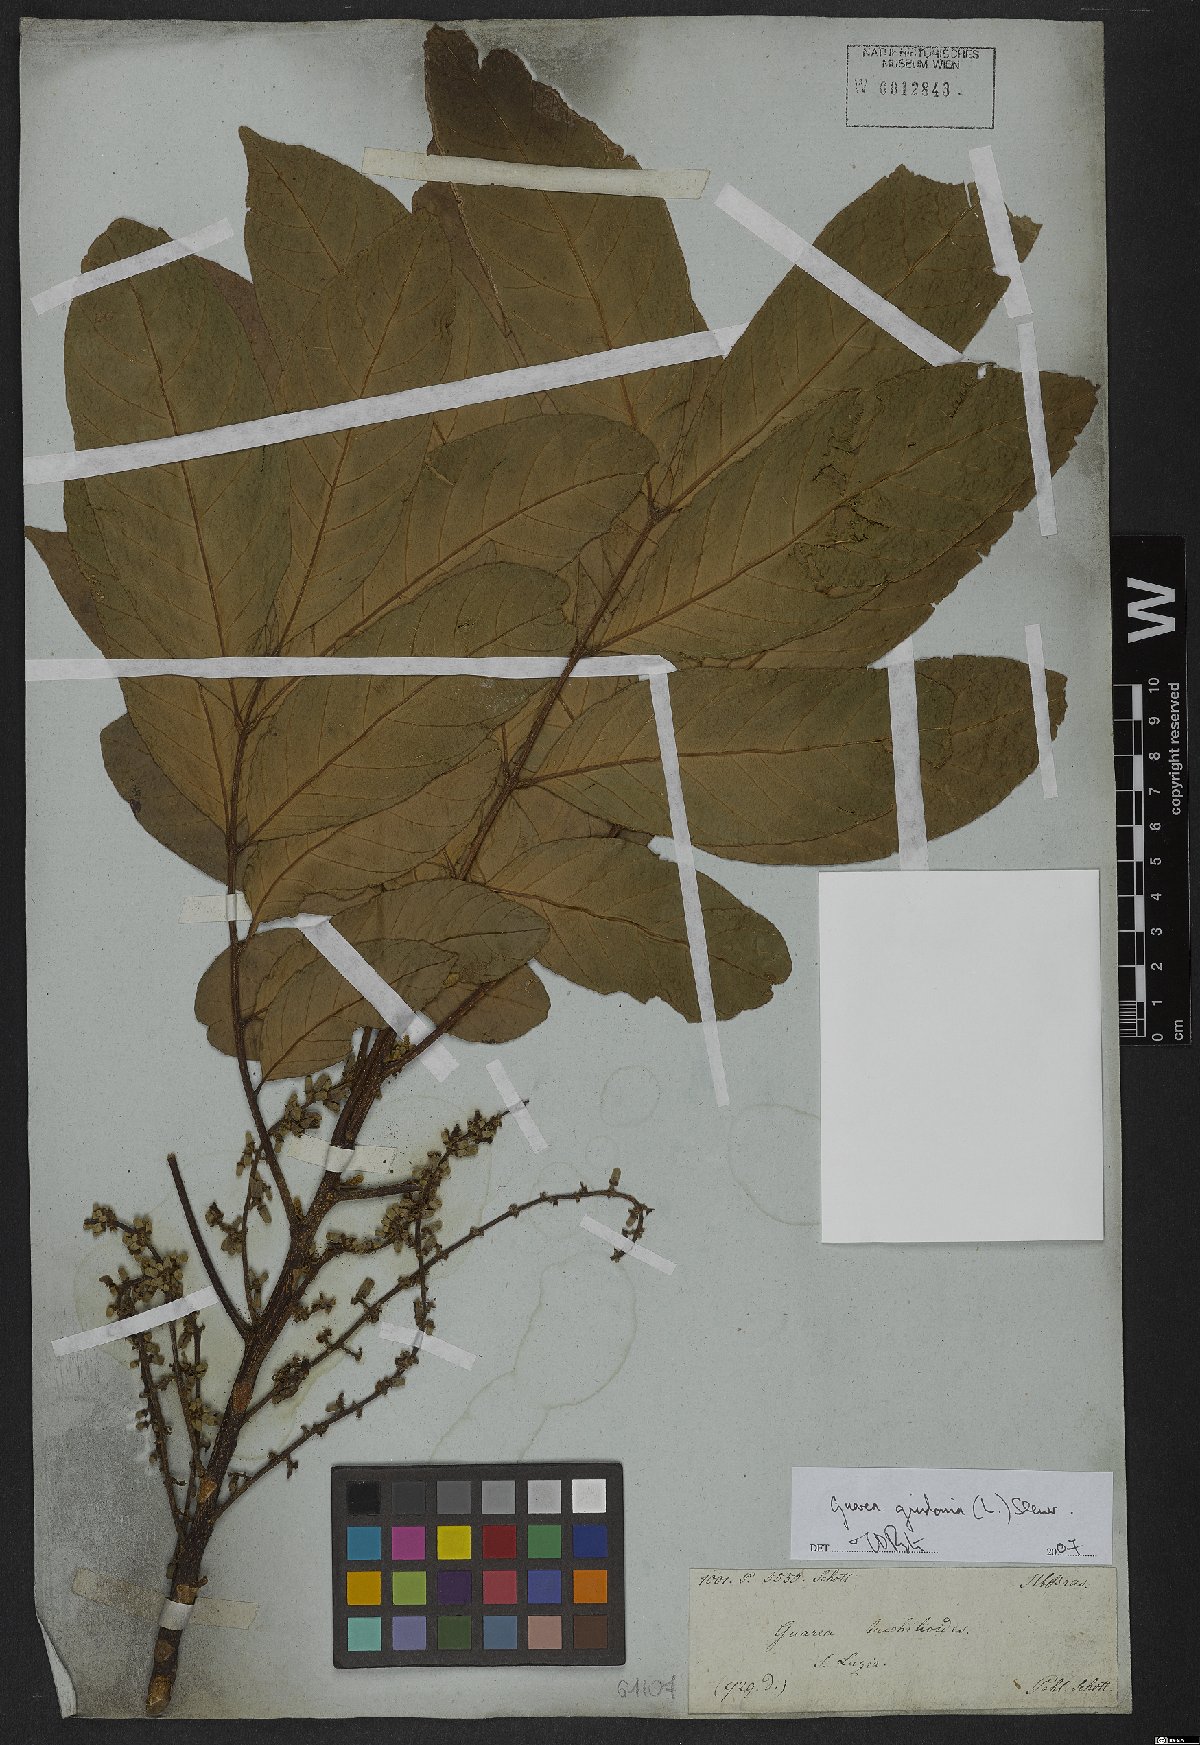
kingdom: Plantae
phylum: Tracheophyta
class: Magnoliopsida
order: Sapindales
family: Meliaceae
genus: Guarea
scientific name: Guarea guidonia
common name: American muskwood
